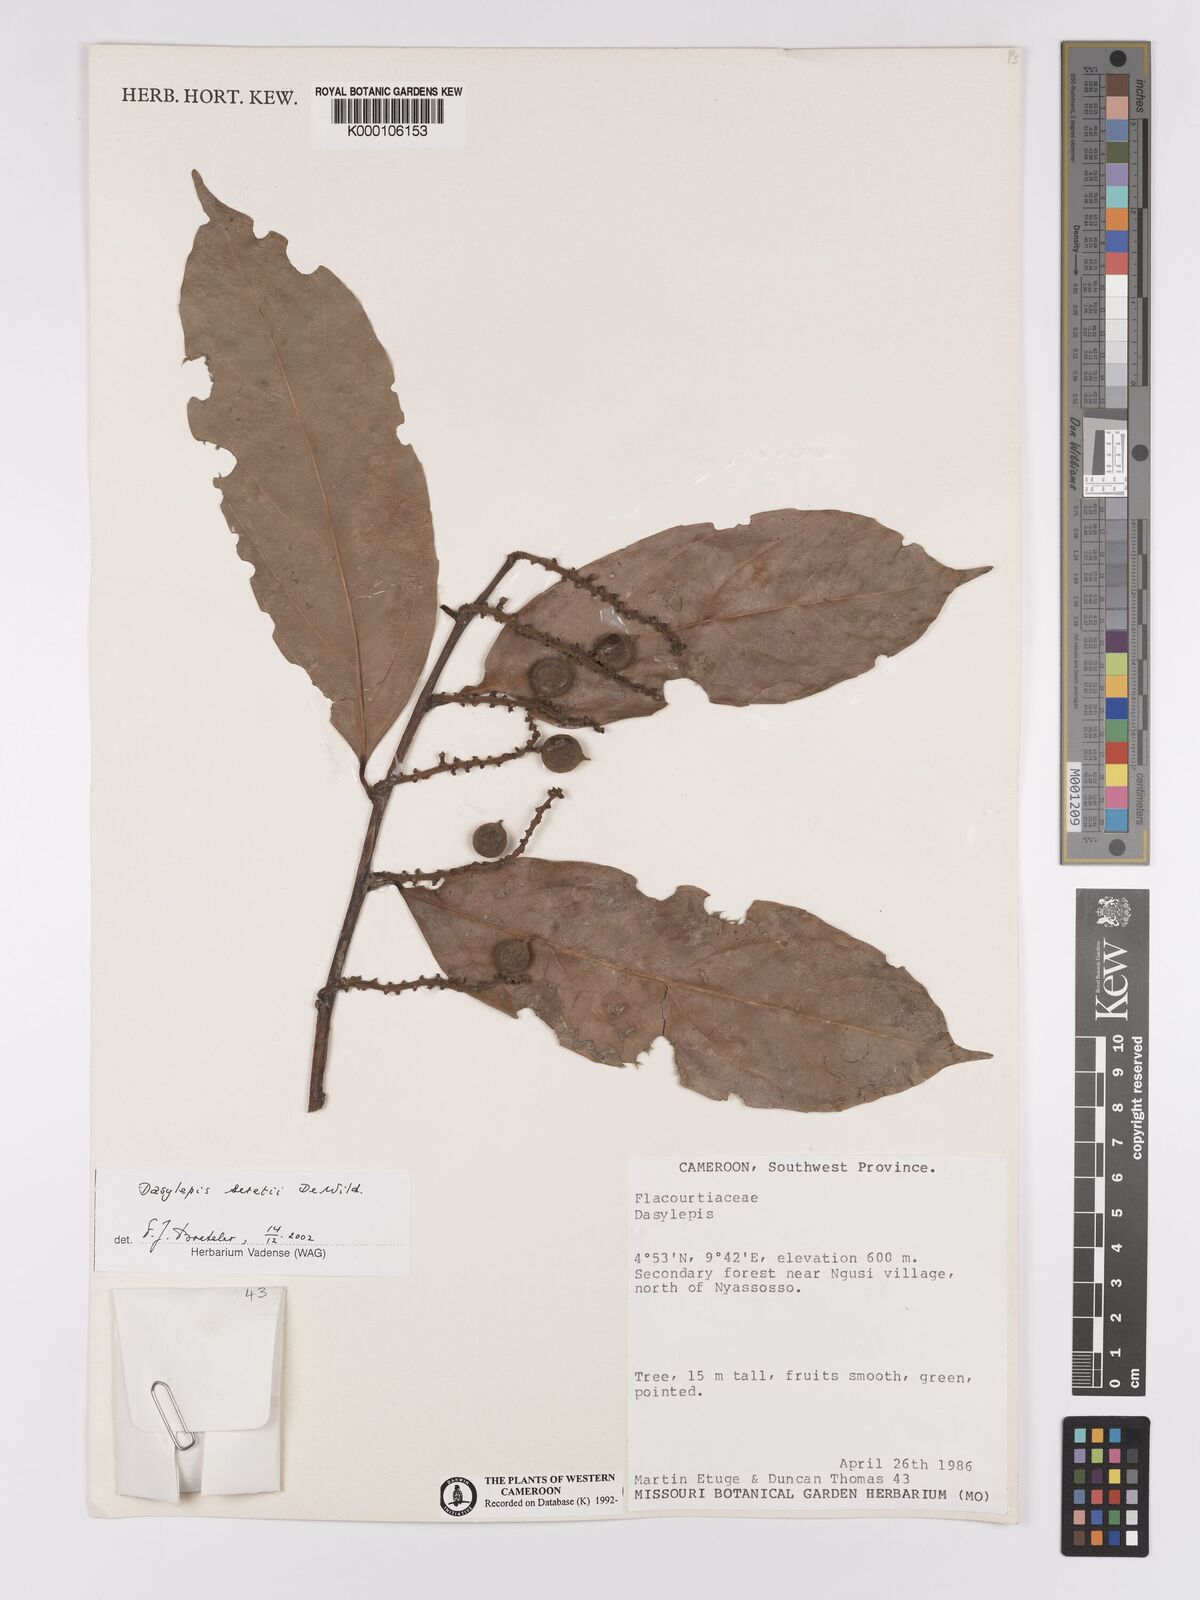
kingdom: Plantae
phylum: Tracheophyta
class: Magnoliopsida
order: Malpighiales
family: Achariaceae
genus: Dasylepis
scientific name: Dasylepis seretii
